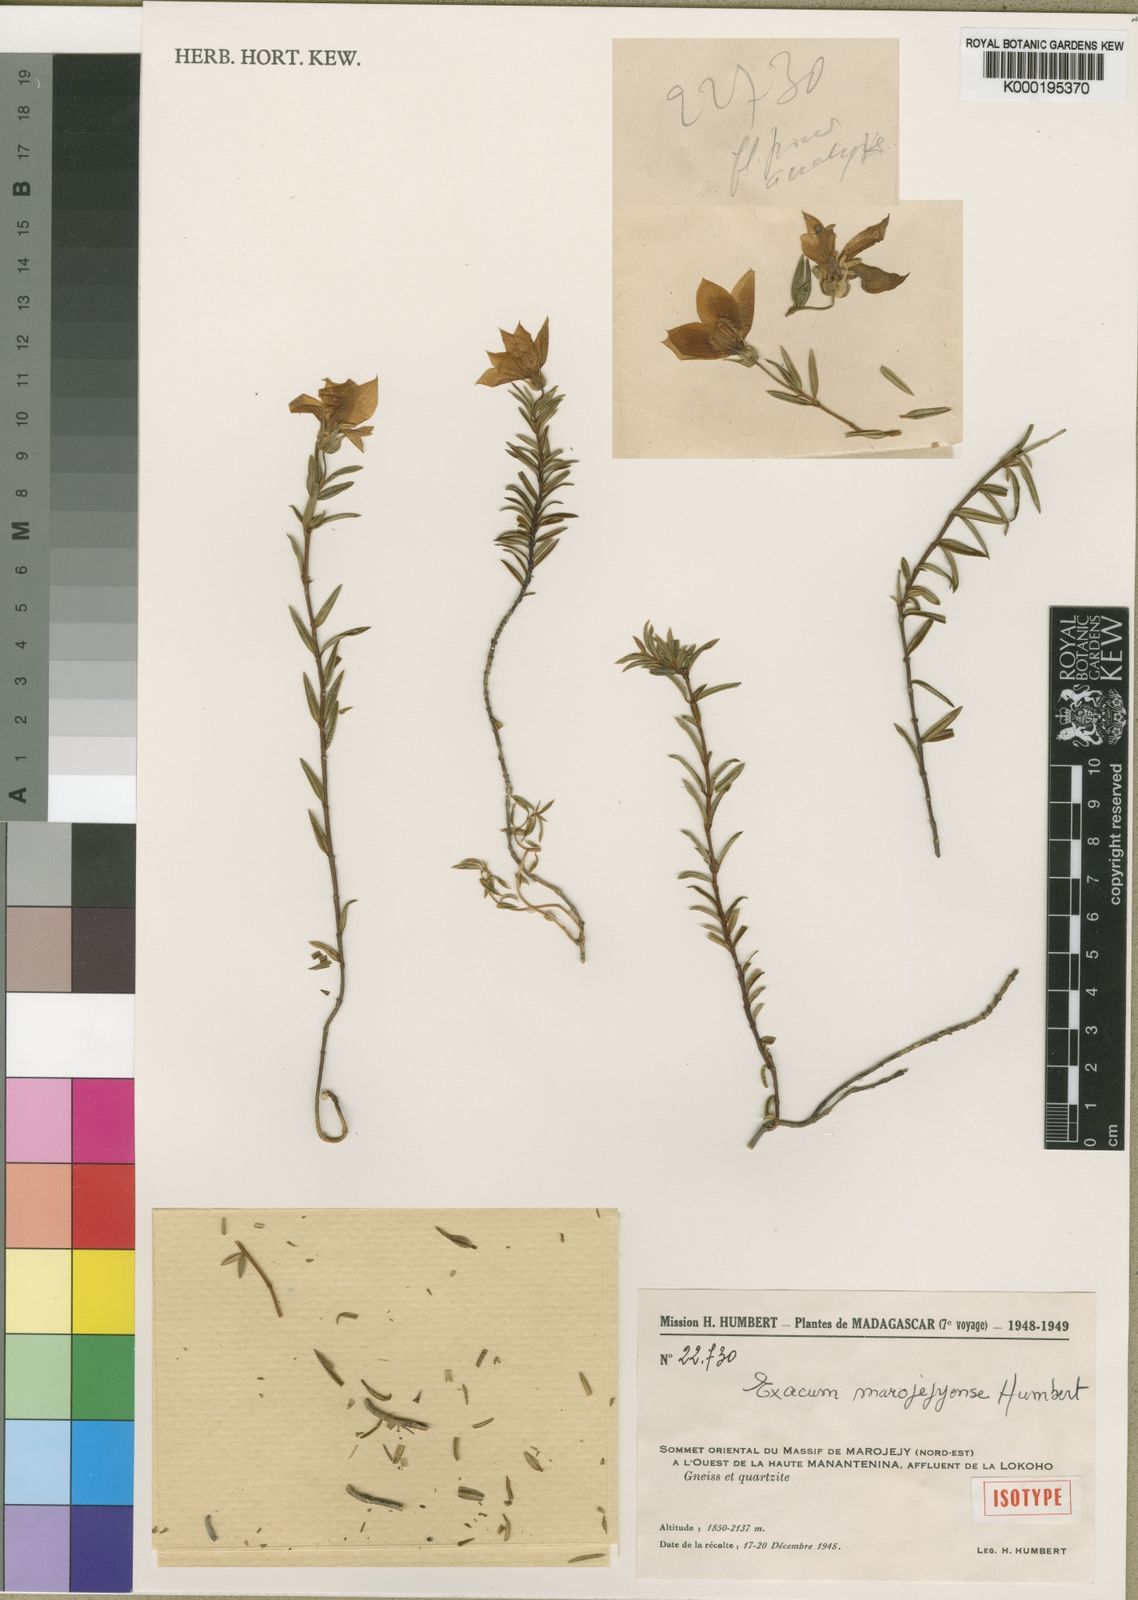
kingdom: Plantae
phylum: Tracheophyta
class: Magnoliopsida
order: Gentianales
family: Gentianaceae
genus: Exacum
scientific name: Exacum marojejyense
